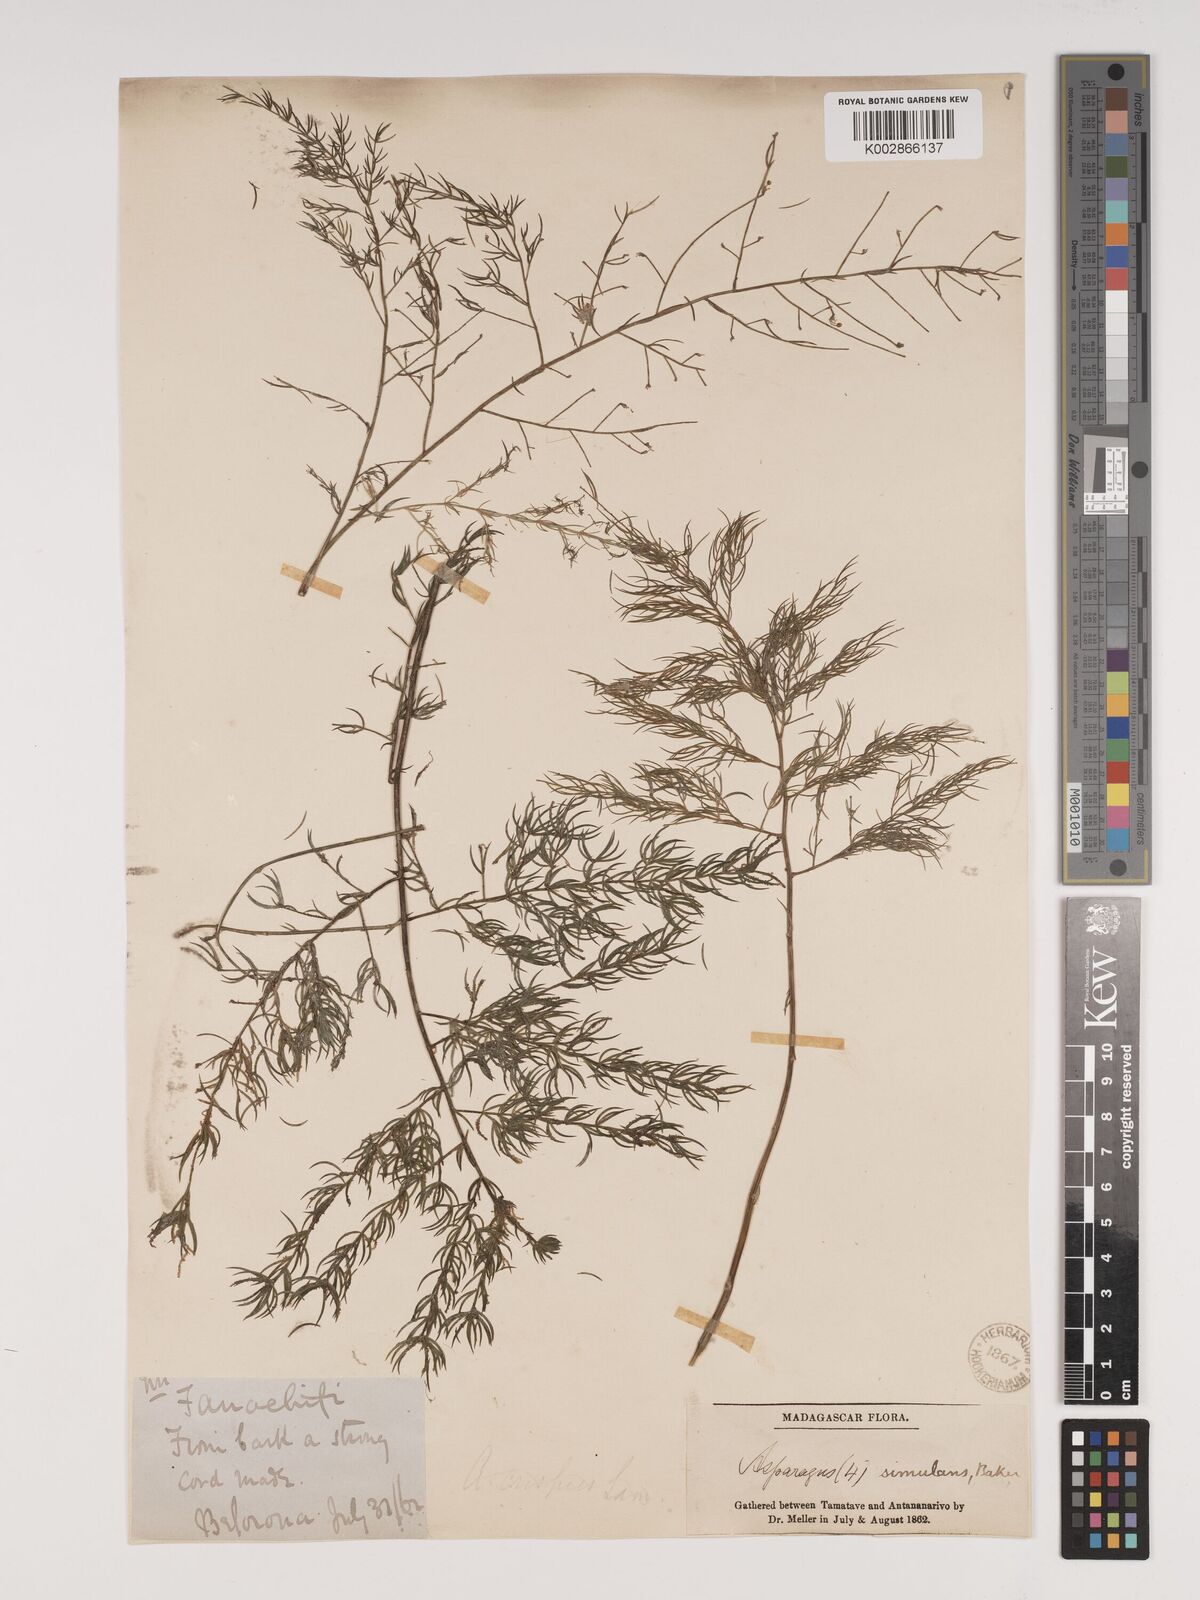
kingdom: Plantae
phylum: Tracheophyta
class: Liliopsida
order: Asparagales
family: Asparagaceae
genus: Asparagus
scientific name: Asparagus simulans
